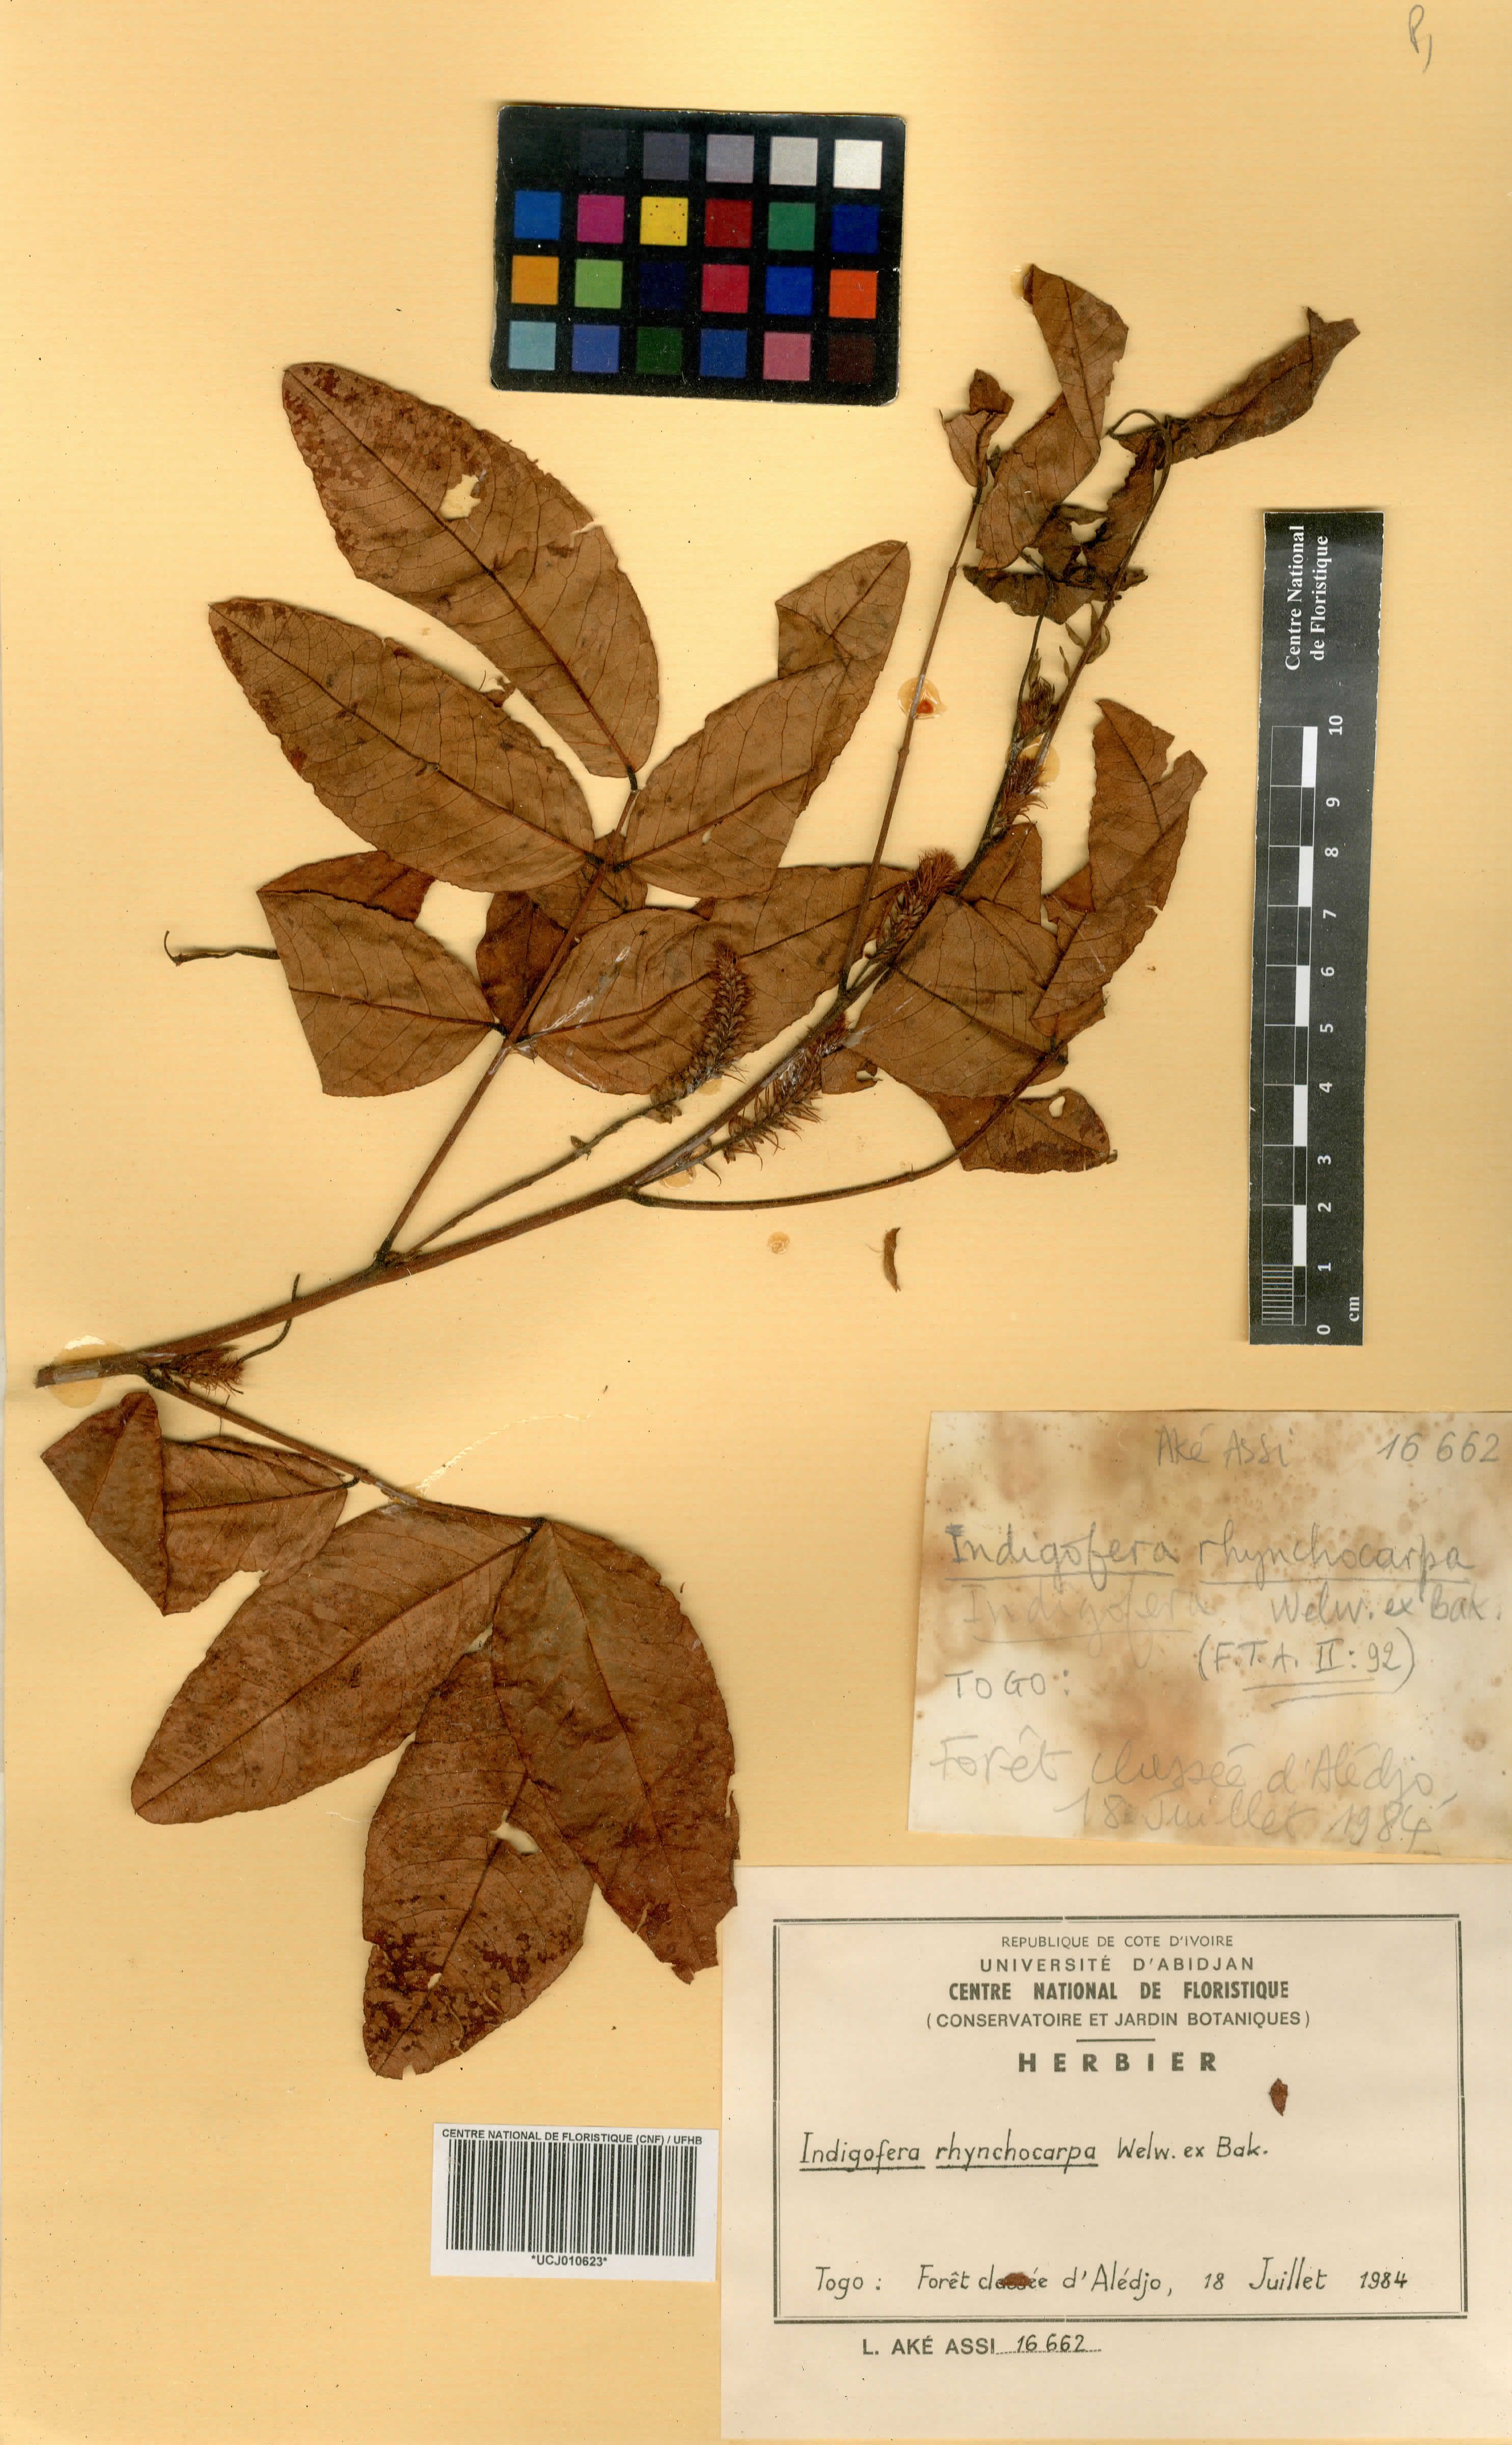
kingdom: Plantae
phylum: Tracheophyta
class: Magnoliopsida
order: Fabales
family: Fabaceae
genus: Indigofera
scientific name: Indigofera suffruticosa
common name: Anil de pasto
